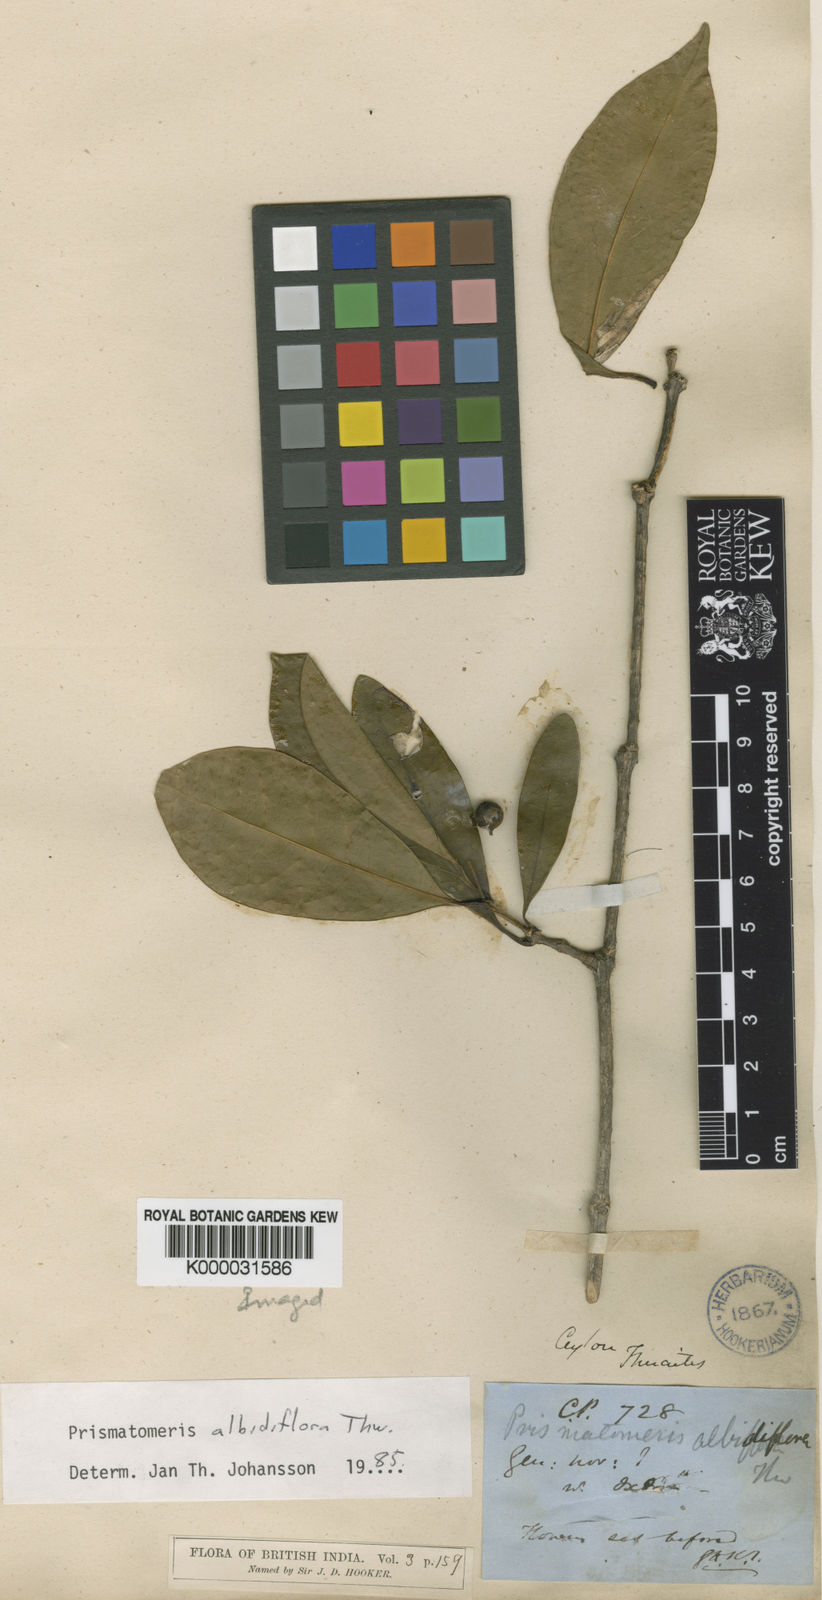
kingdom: Plantae
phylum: Tracheophyta
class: Magnoliopsida
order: Gentianales
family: Rubiaceae
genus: Prismatomeris
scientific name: Prismatomeris tetrandra
